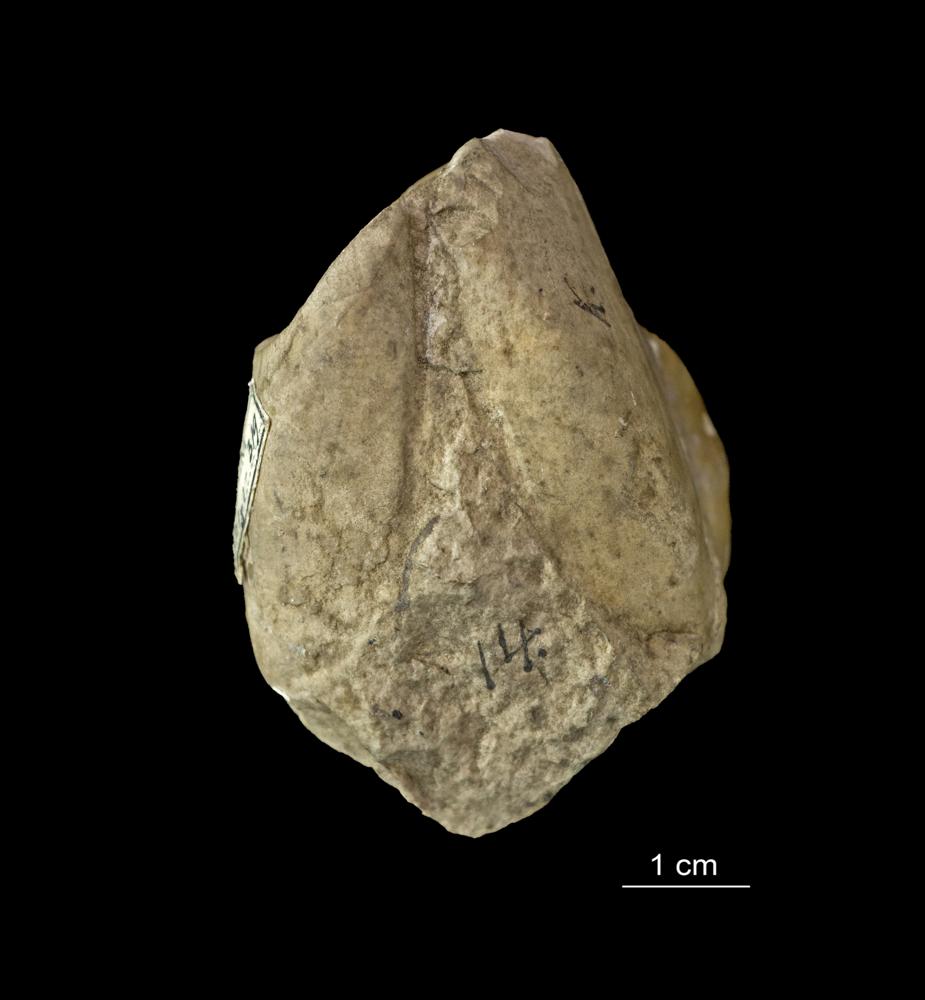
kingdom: Animalia
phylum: Mollusca
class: Bivalvia
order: Modiomorphida
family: Modiomorphidae
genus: Orthodesma
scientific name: Orthodesma
